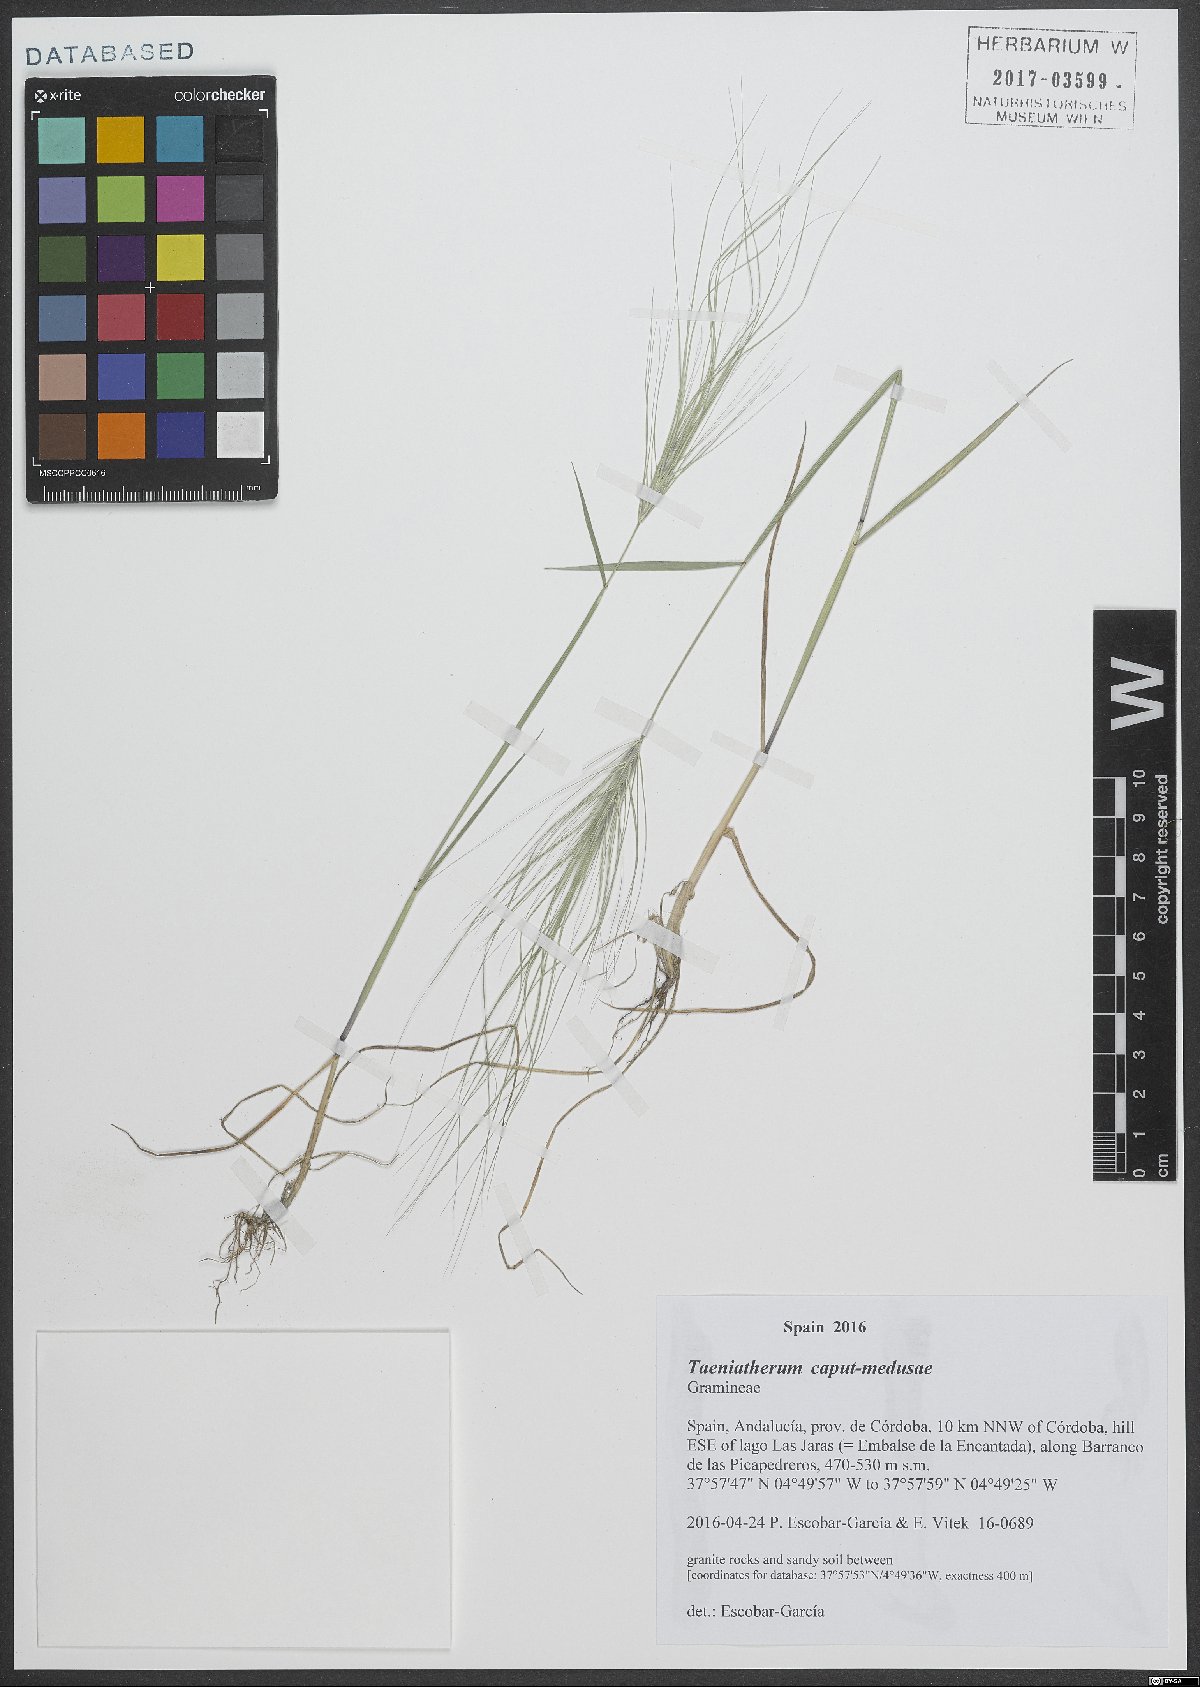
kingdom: Plantae
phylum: Tracheophyta
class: Liliopsida
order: Poales
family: Poaceae
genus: Taeniatherum
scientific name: Taeniatherum caput-medusae
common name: Medusahead
